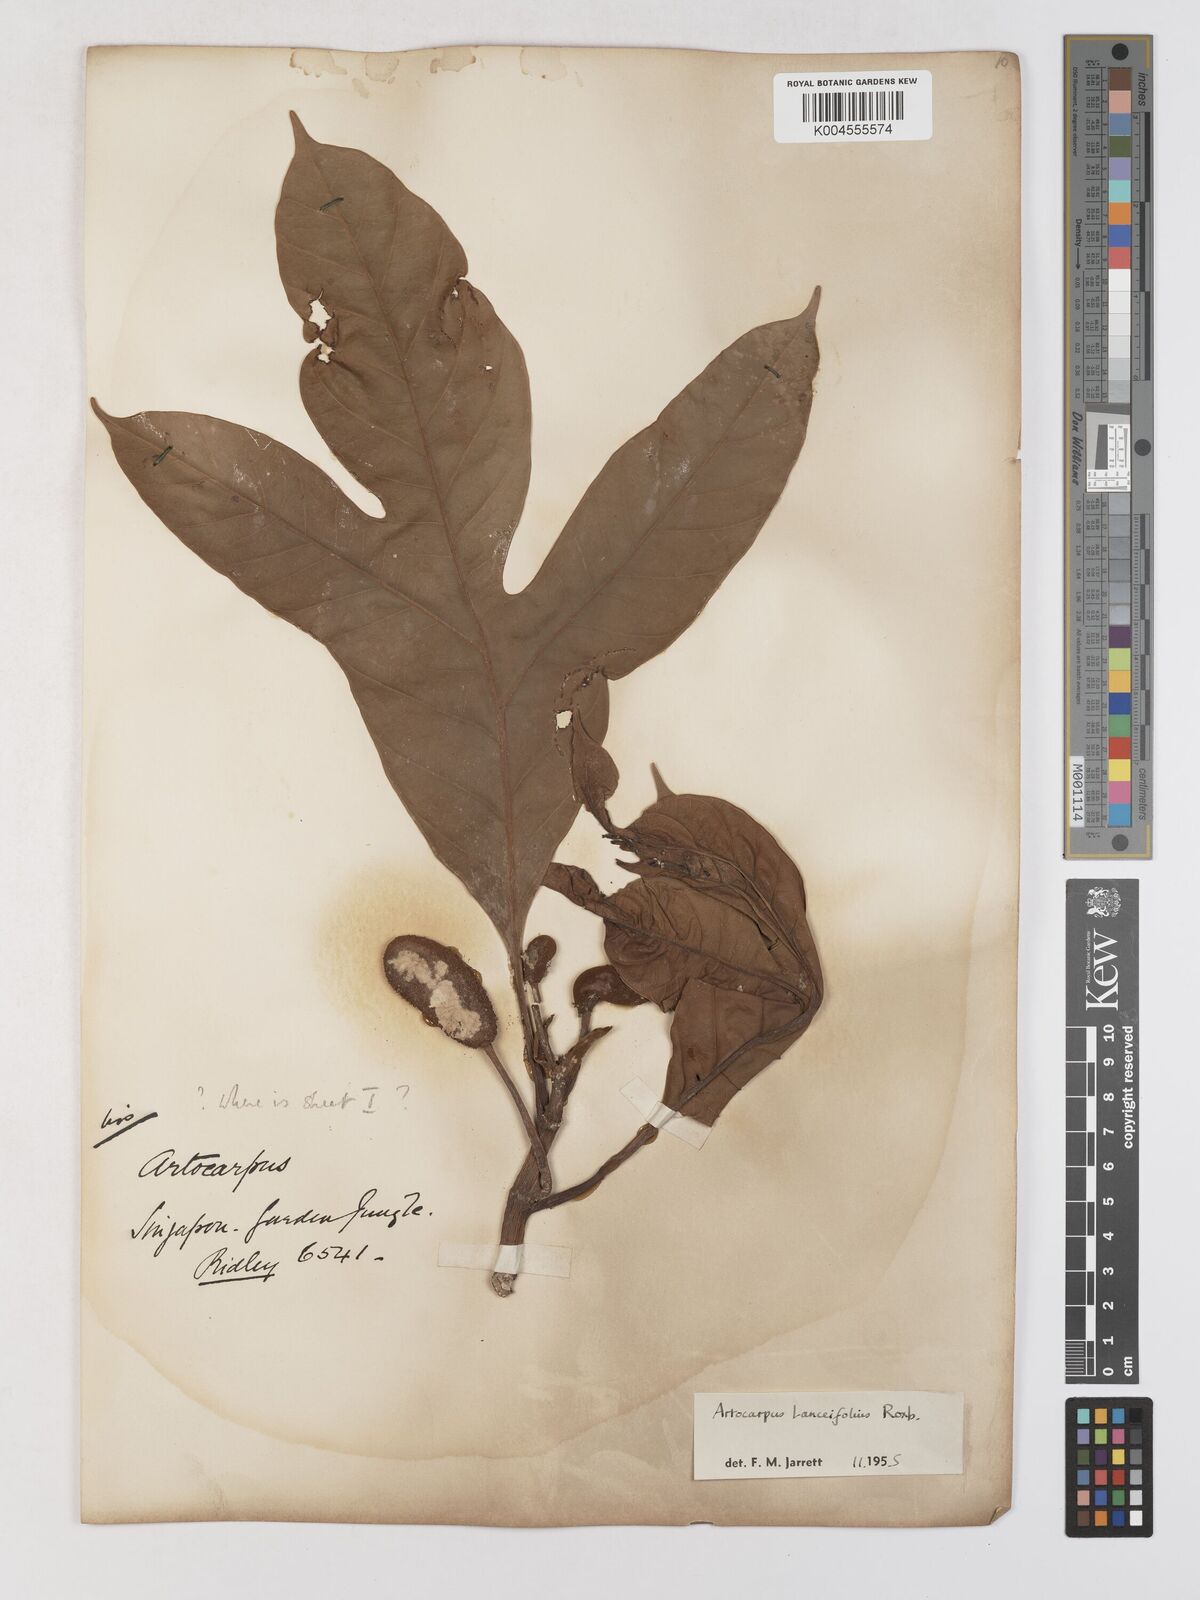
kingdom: Plantae
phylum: Tracheophyta
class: Magnoliopsida
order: Rosales
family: Moraceae
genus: Artocarpus
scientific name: Artocarpus lanceifolius
